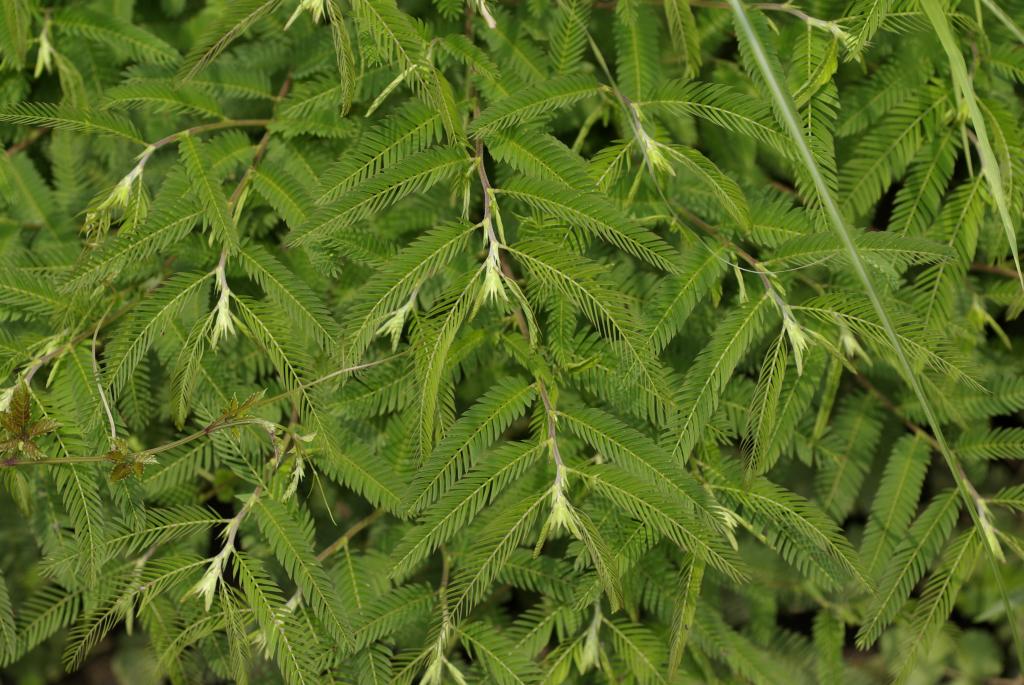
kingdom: Plantae
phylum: Tracheophyta
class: Magnoliopsida
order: Fabales
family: Fabaceae
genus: Chamaecrista
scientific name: Chamaecrista nictitans
